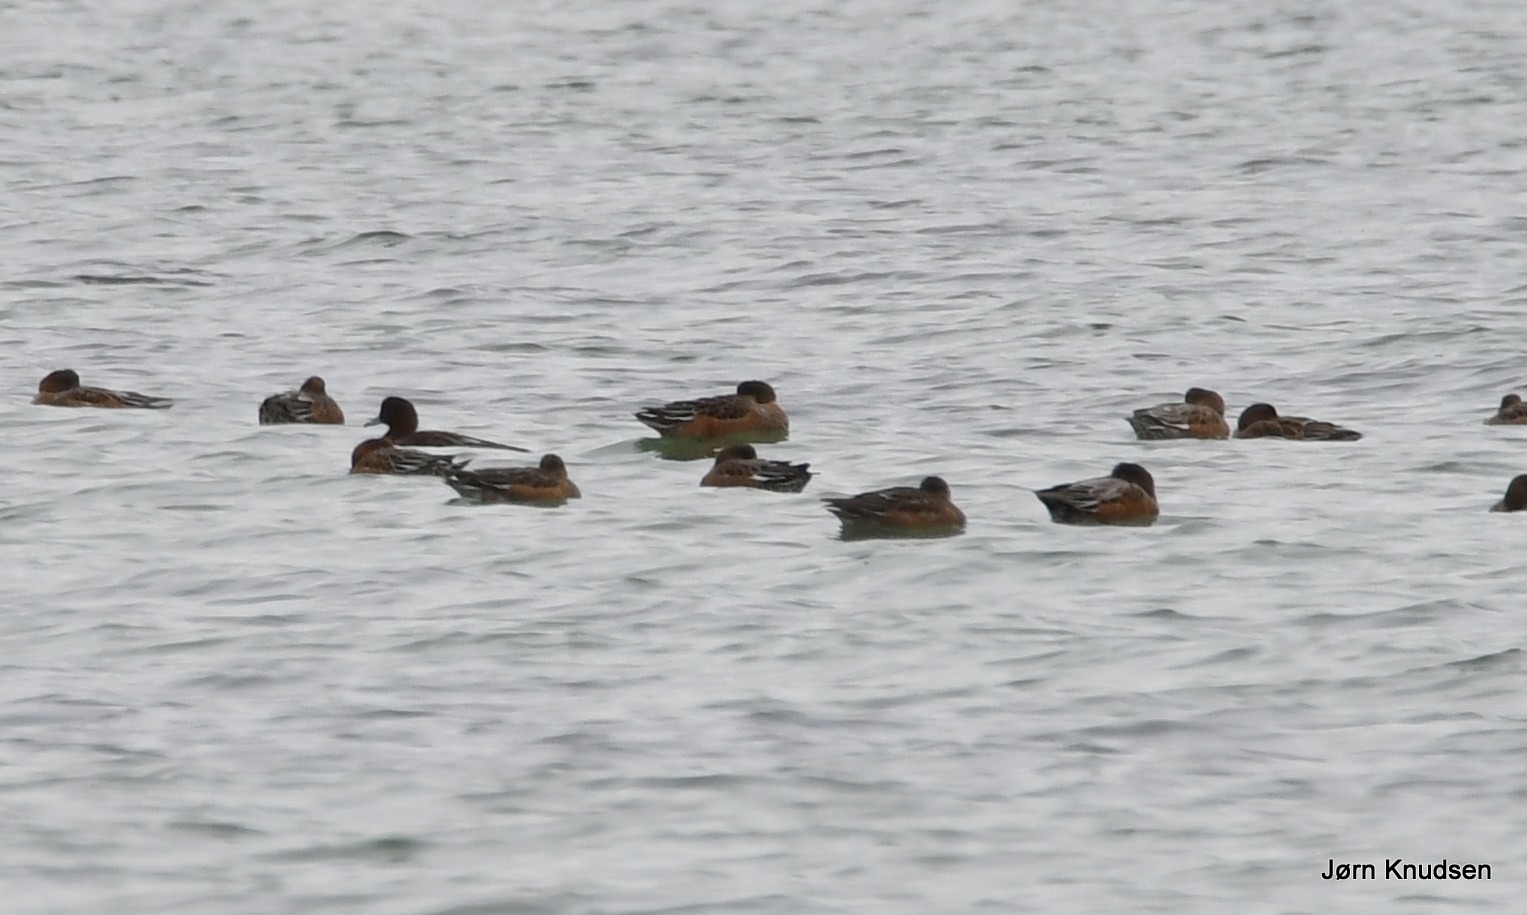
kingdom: Animalia
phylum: Chordata
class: Aves
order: Anseriformes
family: Anatidae
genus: Mareca
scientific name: Mareca penelope
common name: Pibeand
